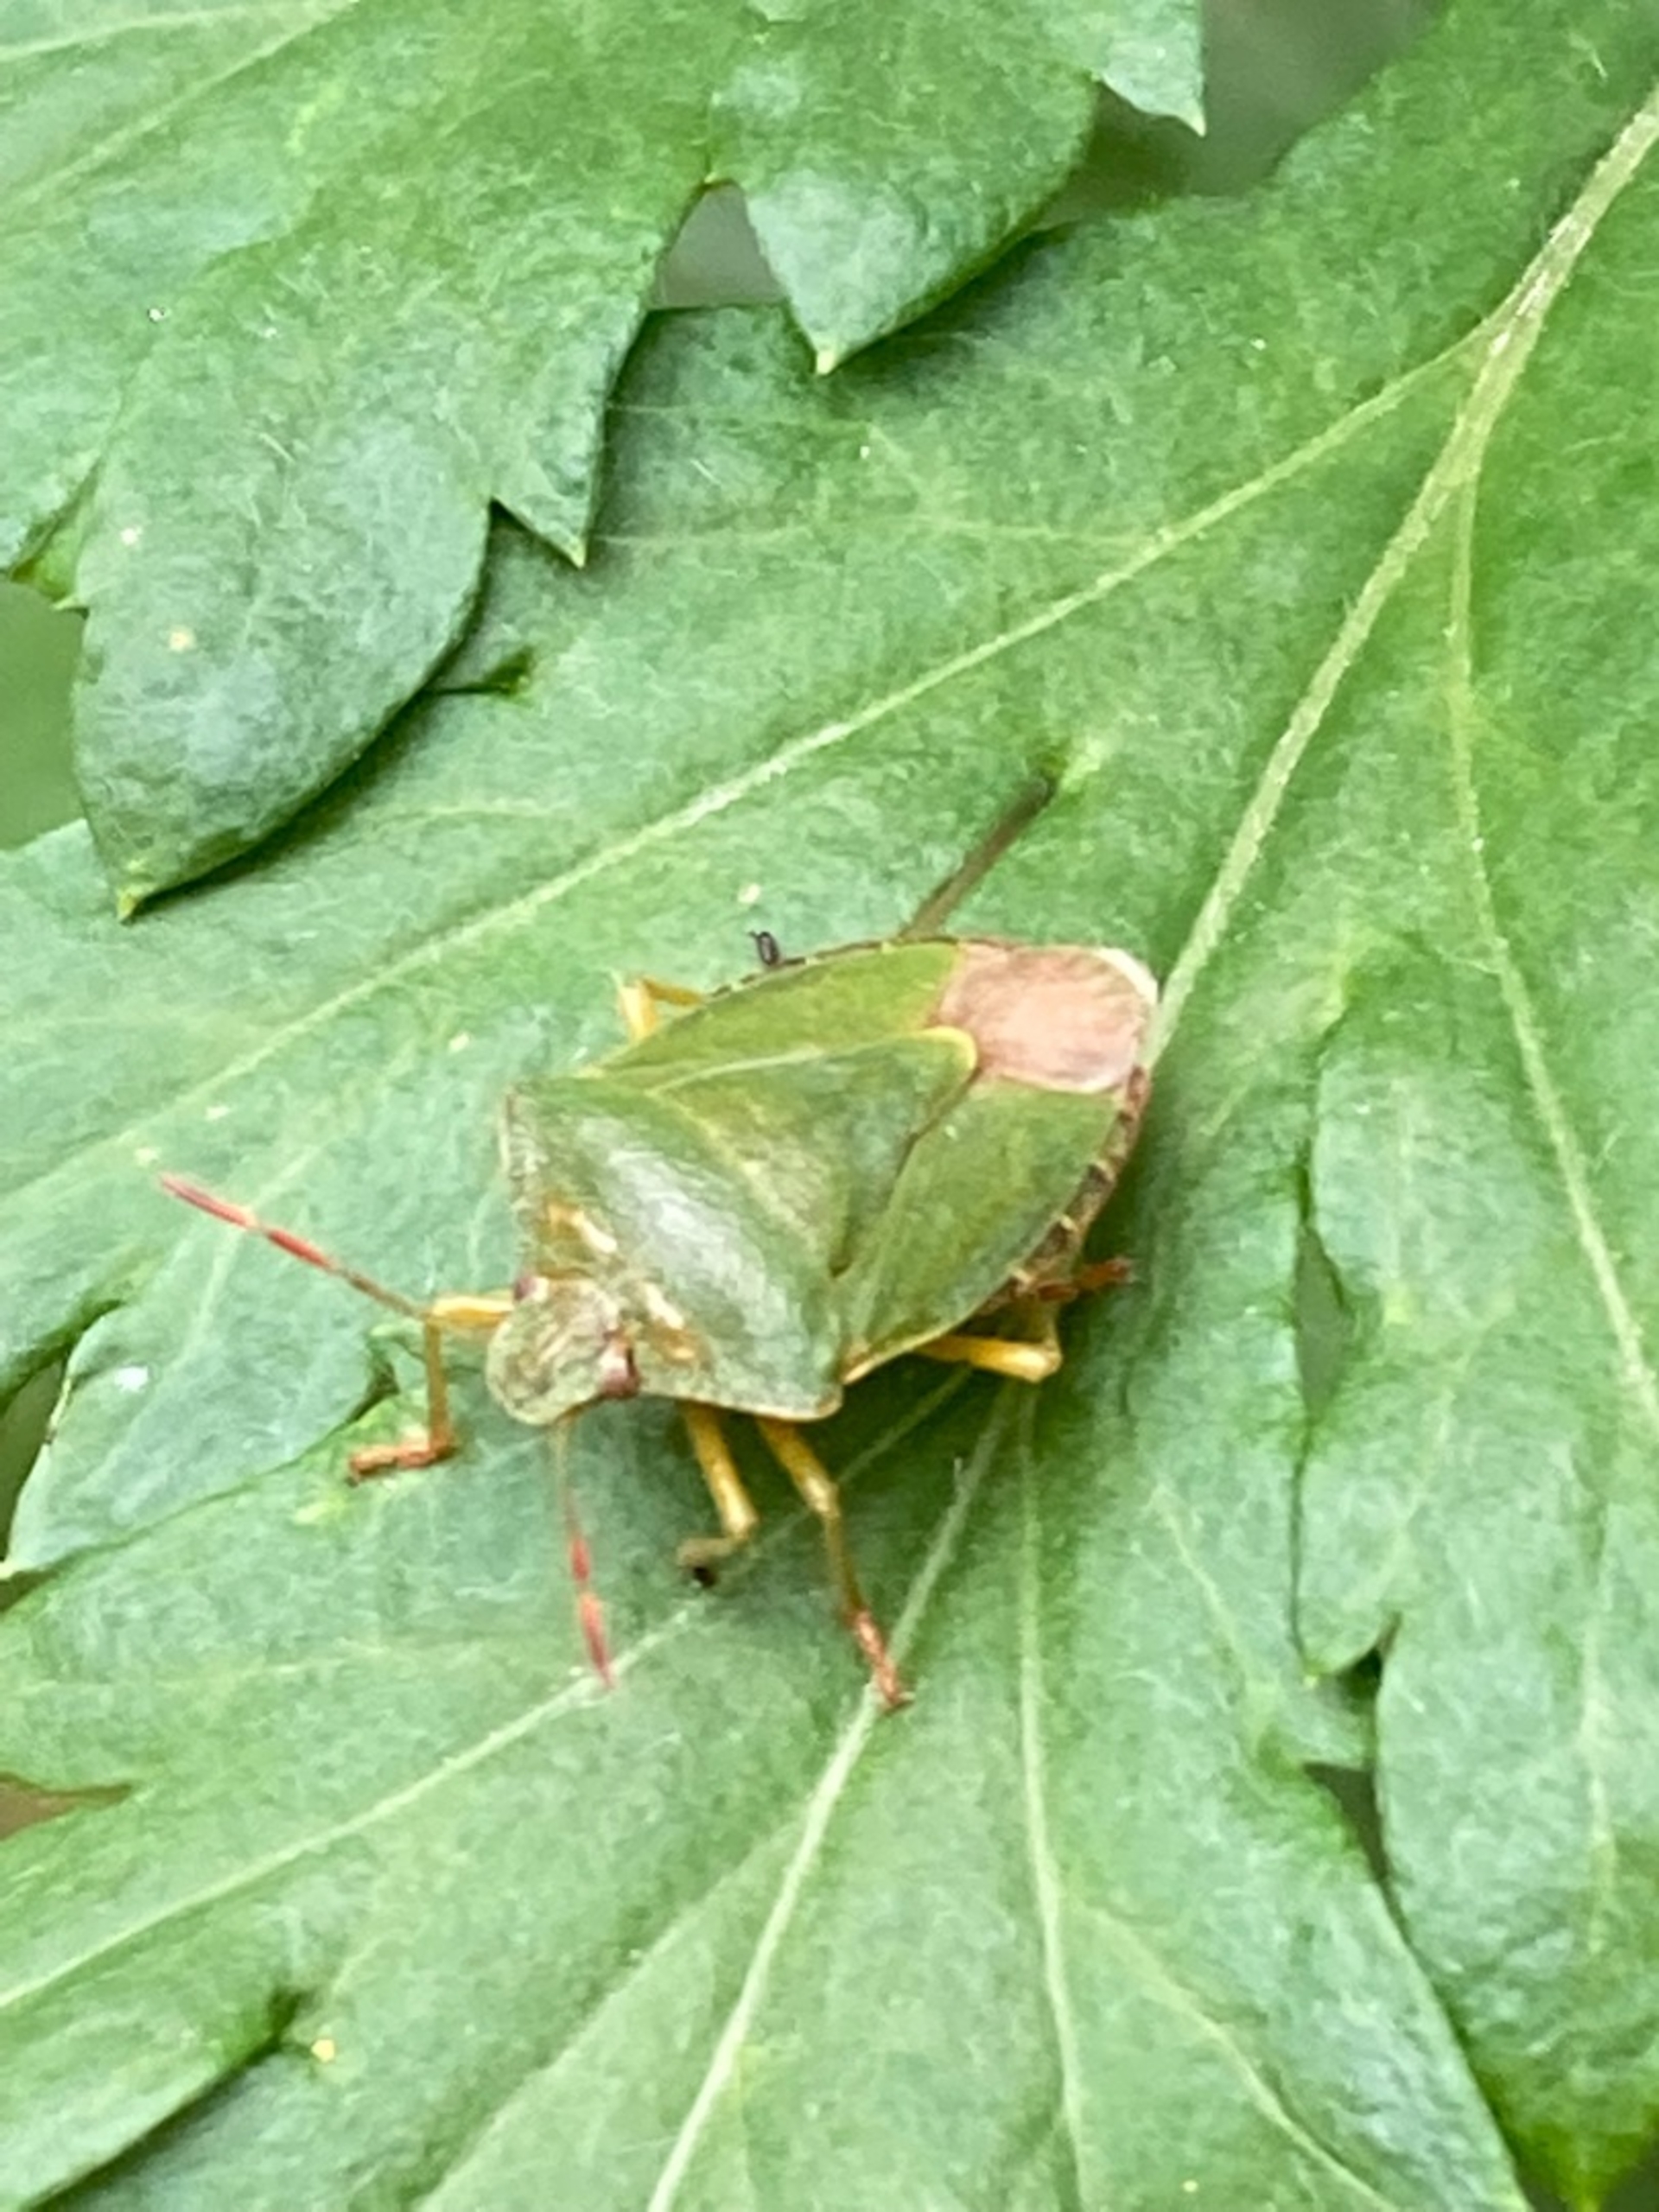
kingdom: Animalia
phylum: Arthropoda
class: Insecta
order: Hemiptera
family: Pentatomidae
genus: Palomena
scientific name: Palomena prasina
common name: Grøn bredtæge
